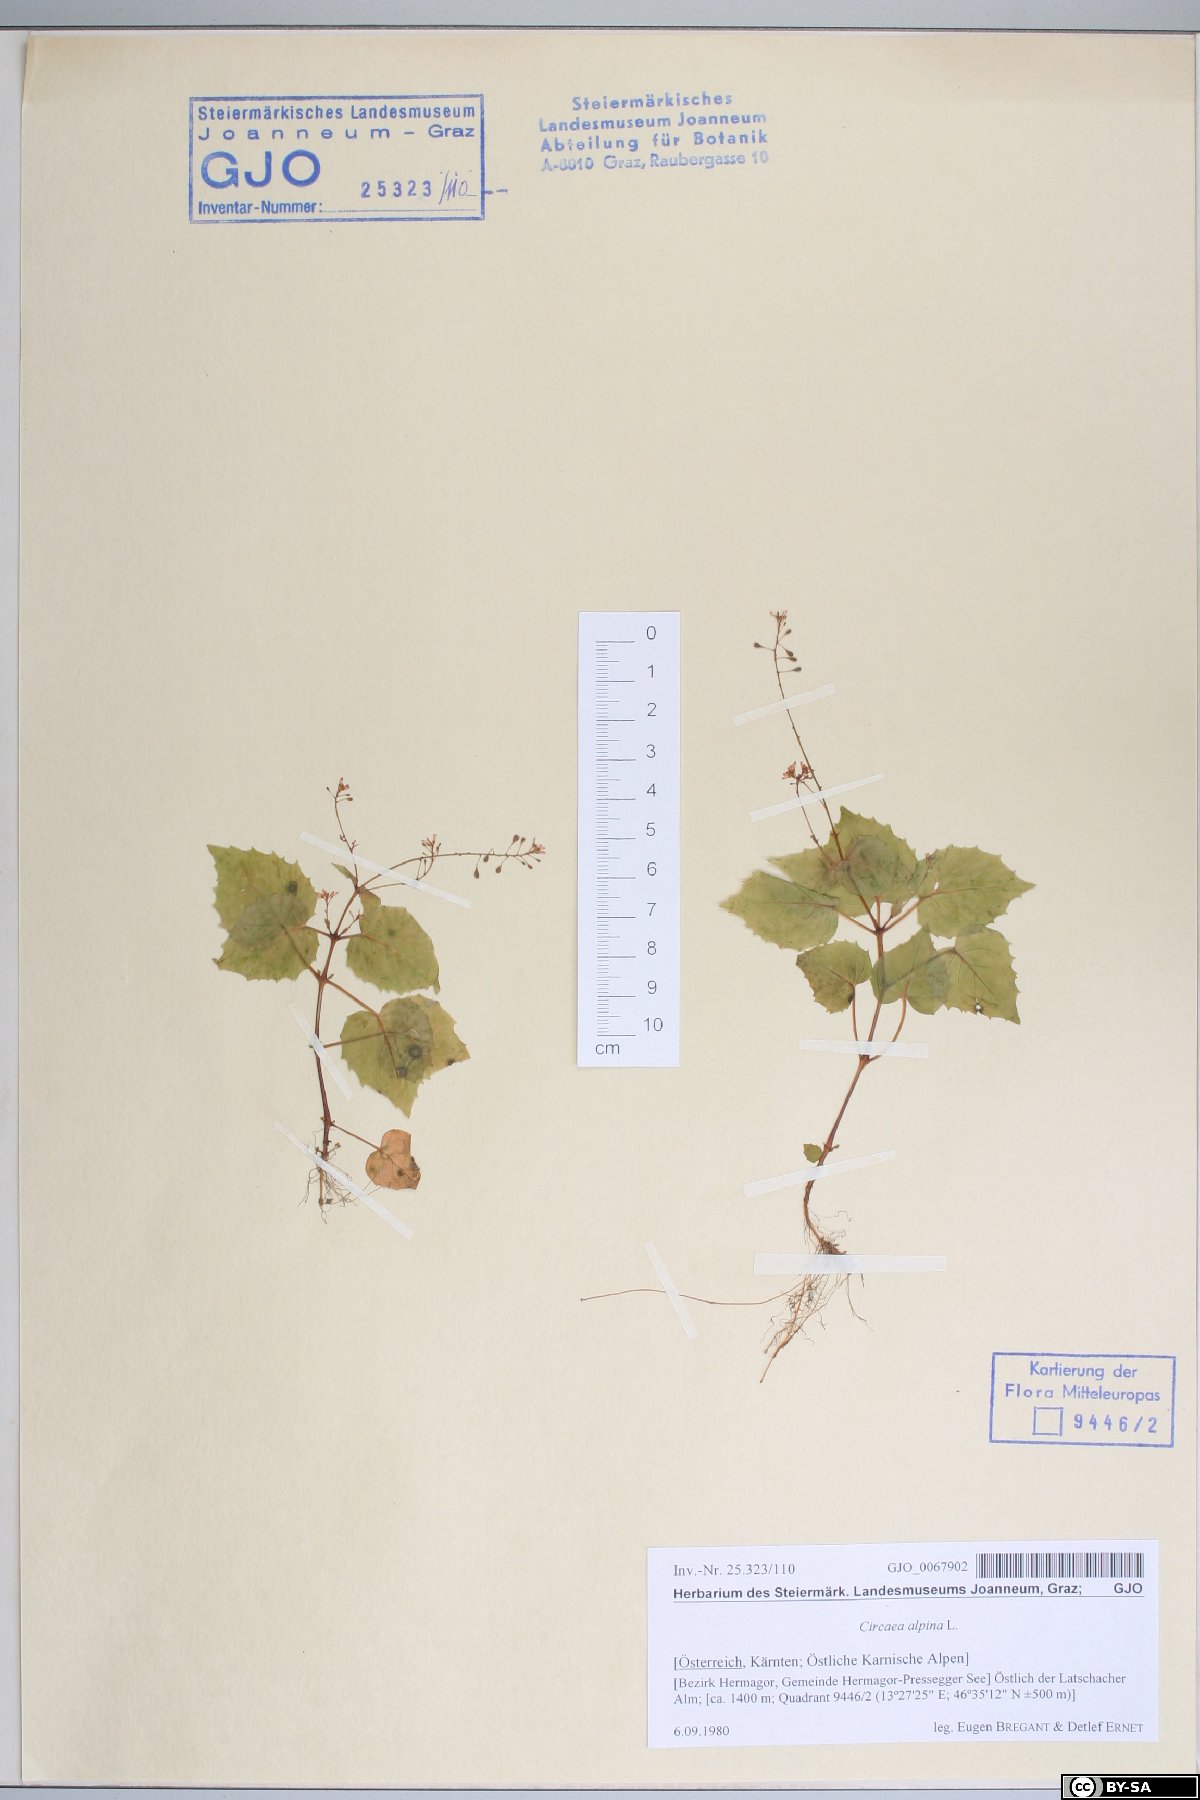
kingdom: Plantae
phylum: Tracheophyta
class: Magnoliopsida
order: Myrtales
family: Onagraceae
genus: Circaea
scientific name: Circaea alpina
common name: Alpine enchanter's-nightshade
